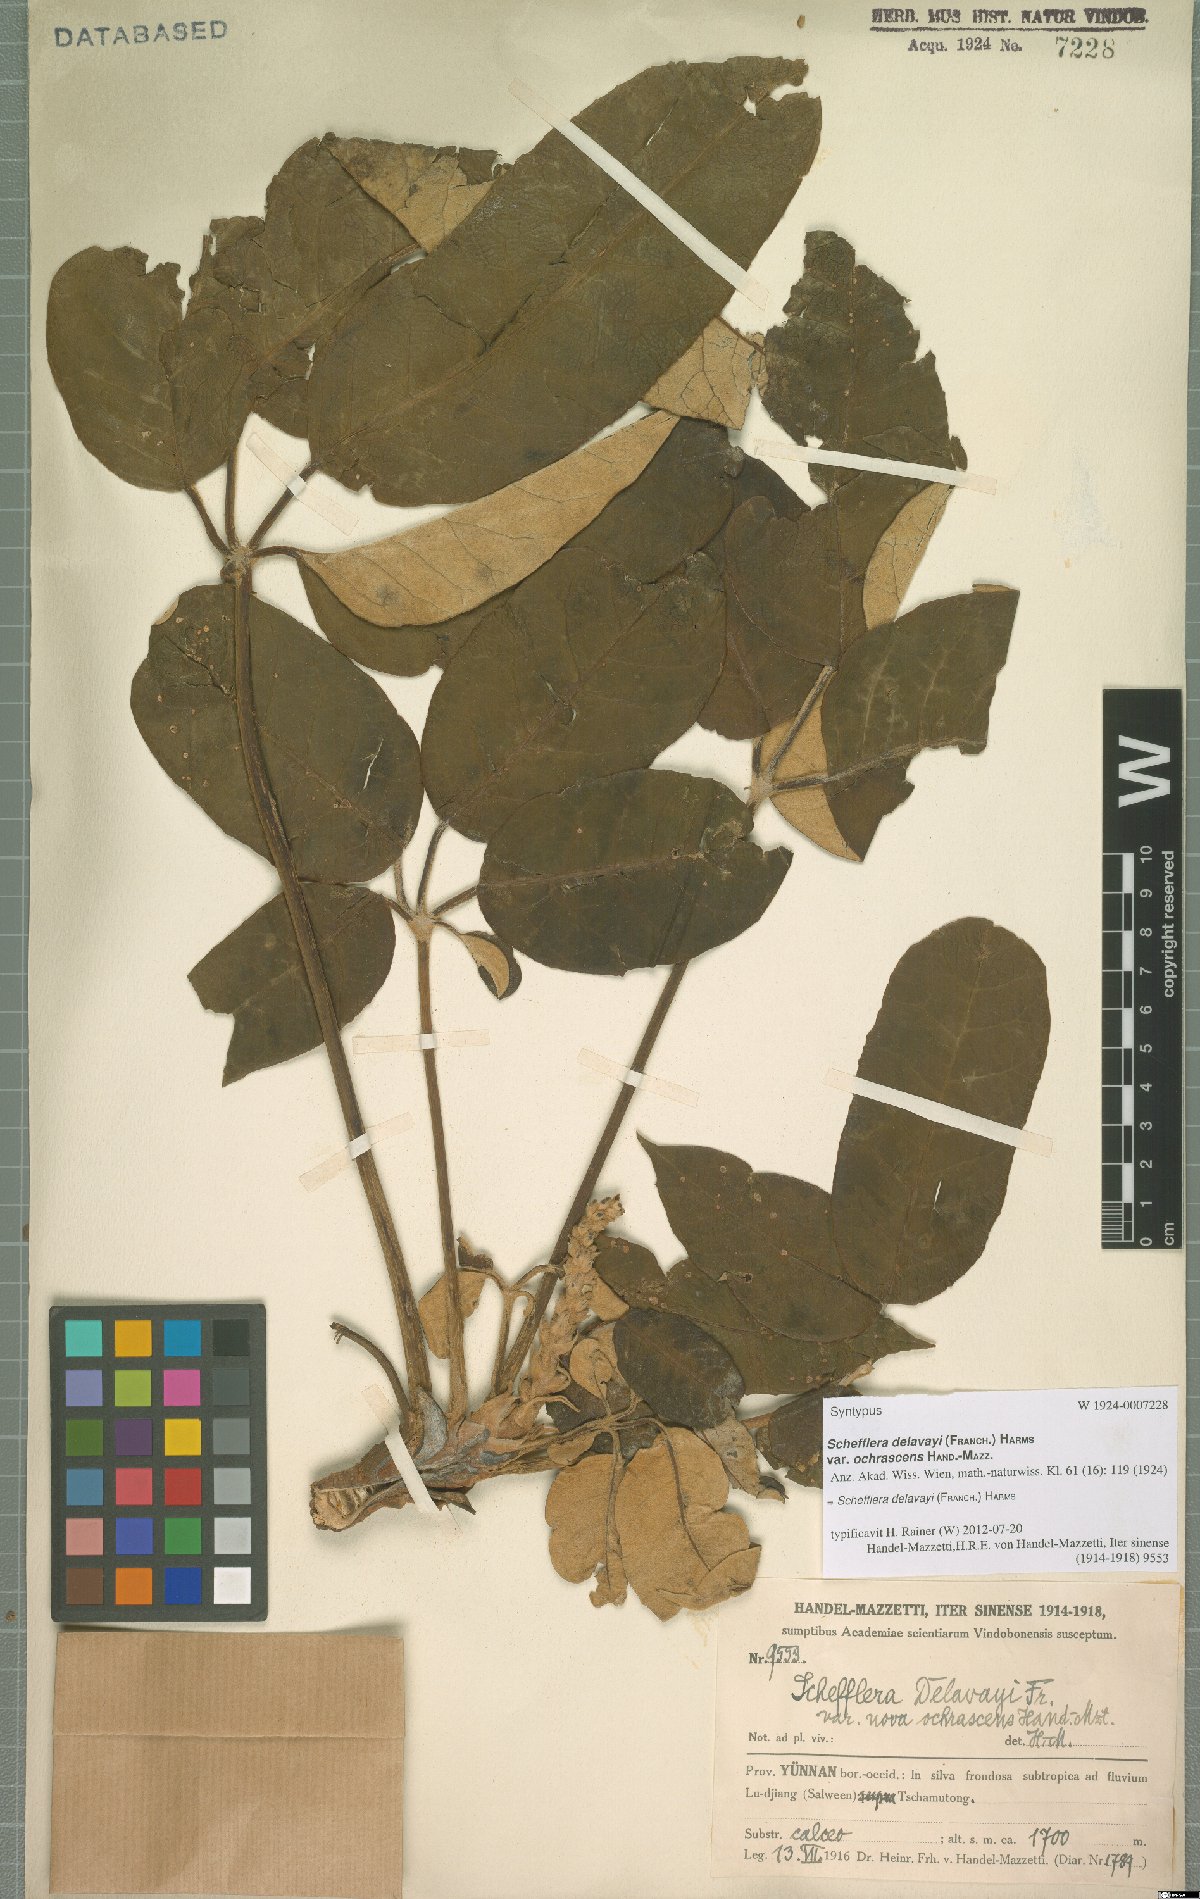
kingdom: Plantae
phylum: Tracheophyta
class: Magnoliopsida
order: Apiales
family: Araliaceae
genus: Heptapleurum
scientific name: Heptapleurum delavayi
